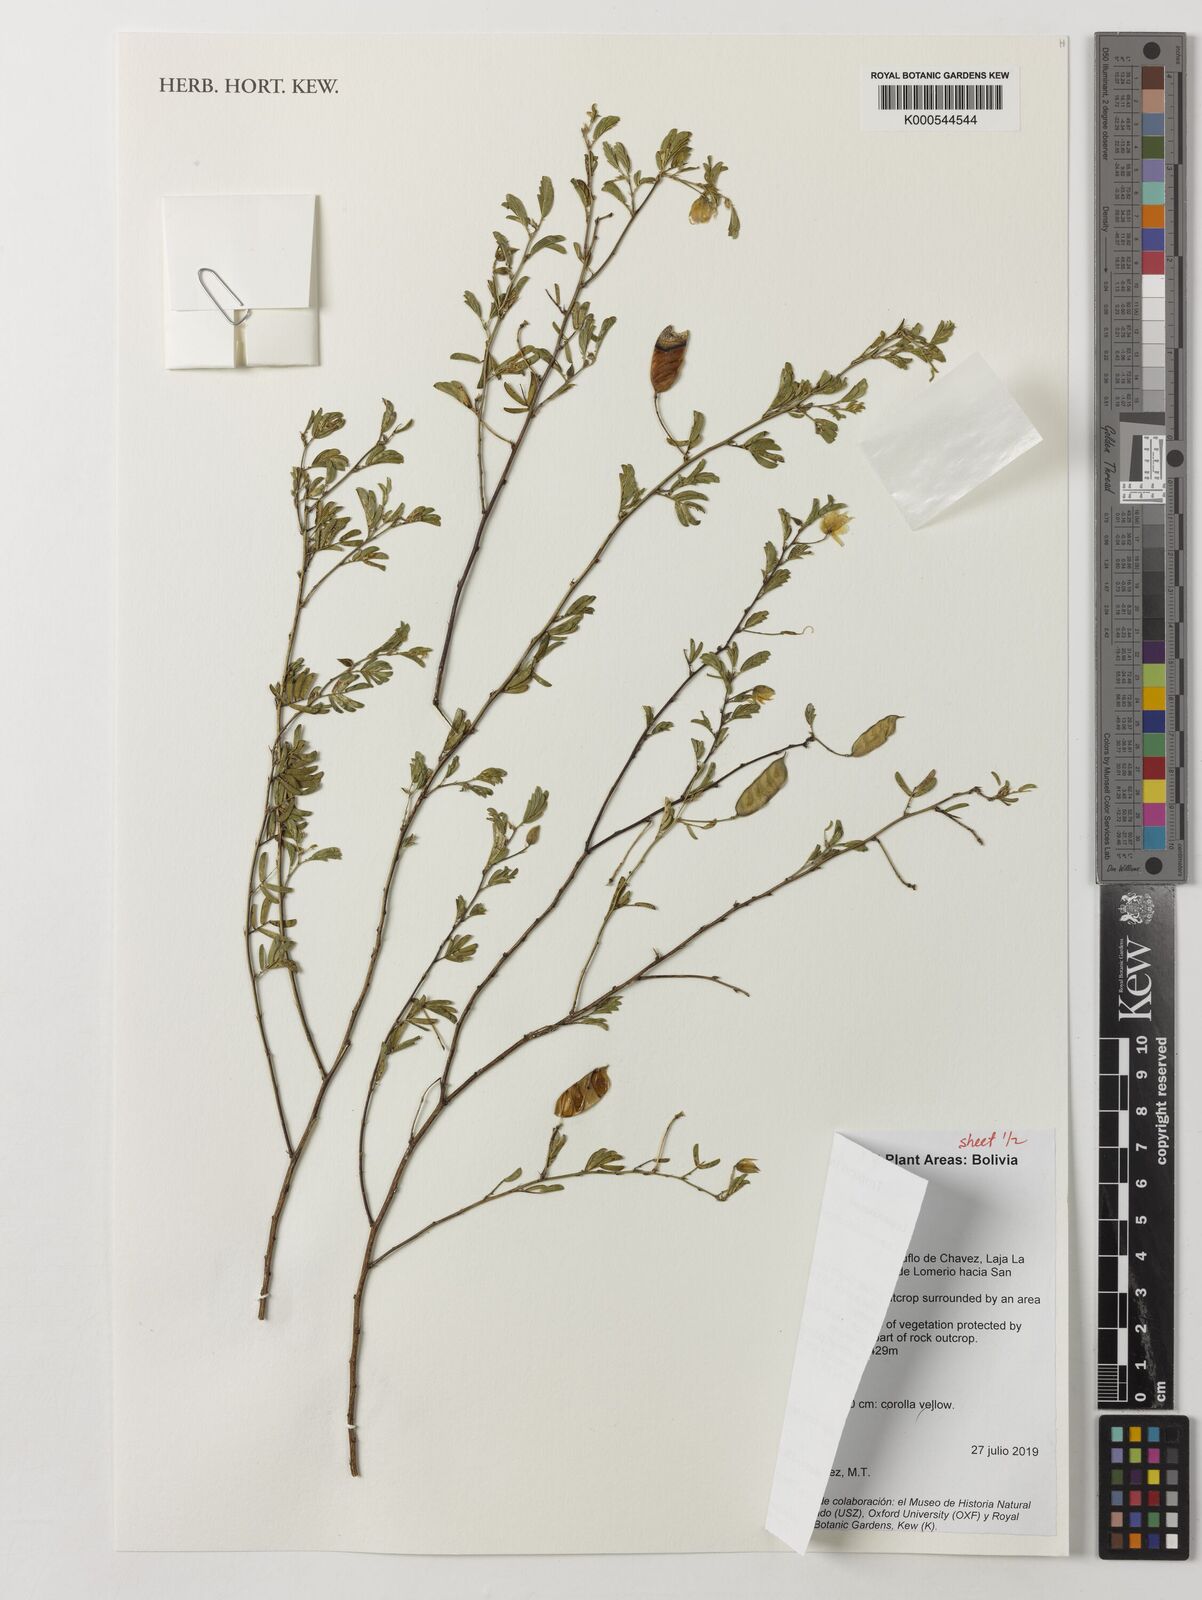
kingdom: Plantae
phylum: Tracheophyta
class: Magnoliopsida
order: Fabales
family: Fabaceae
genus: Chamaecrista
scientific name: Chamaecrista chiquitana
